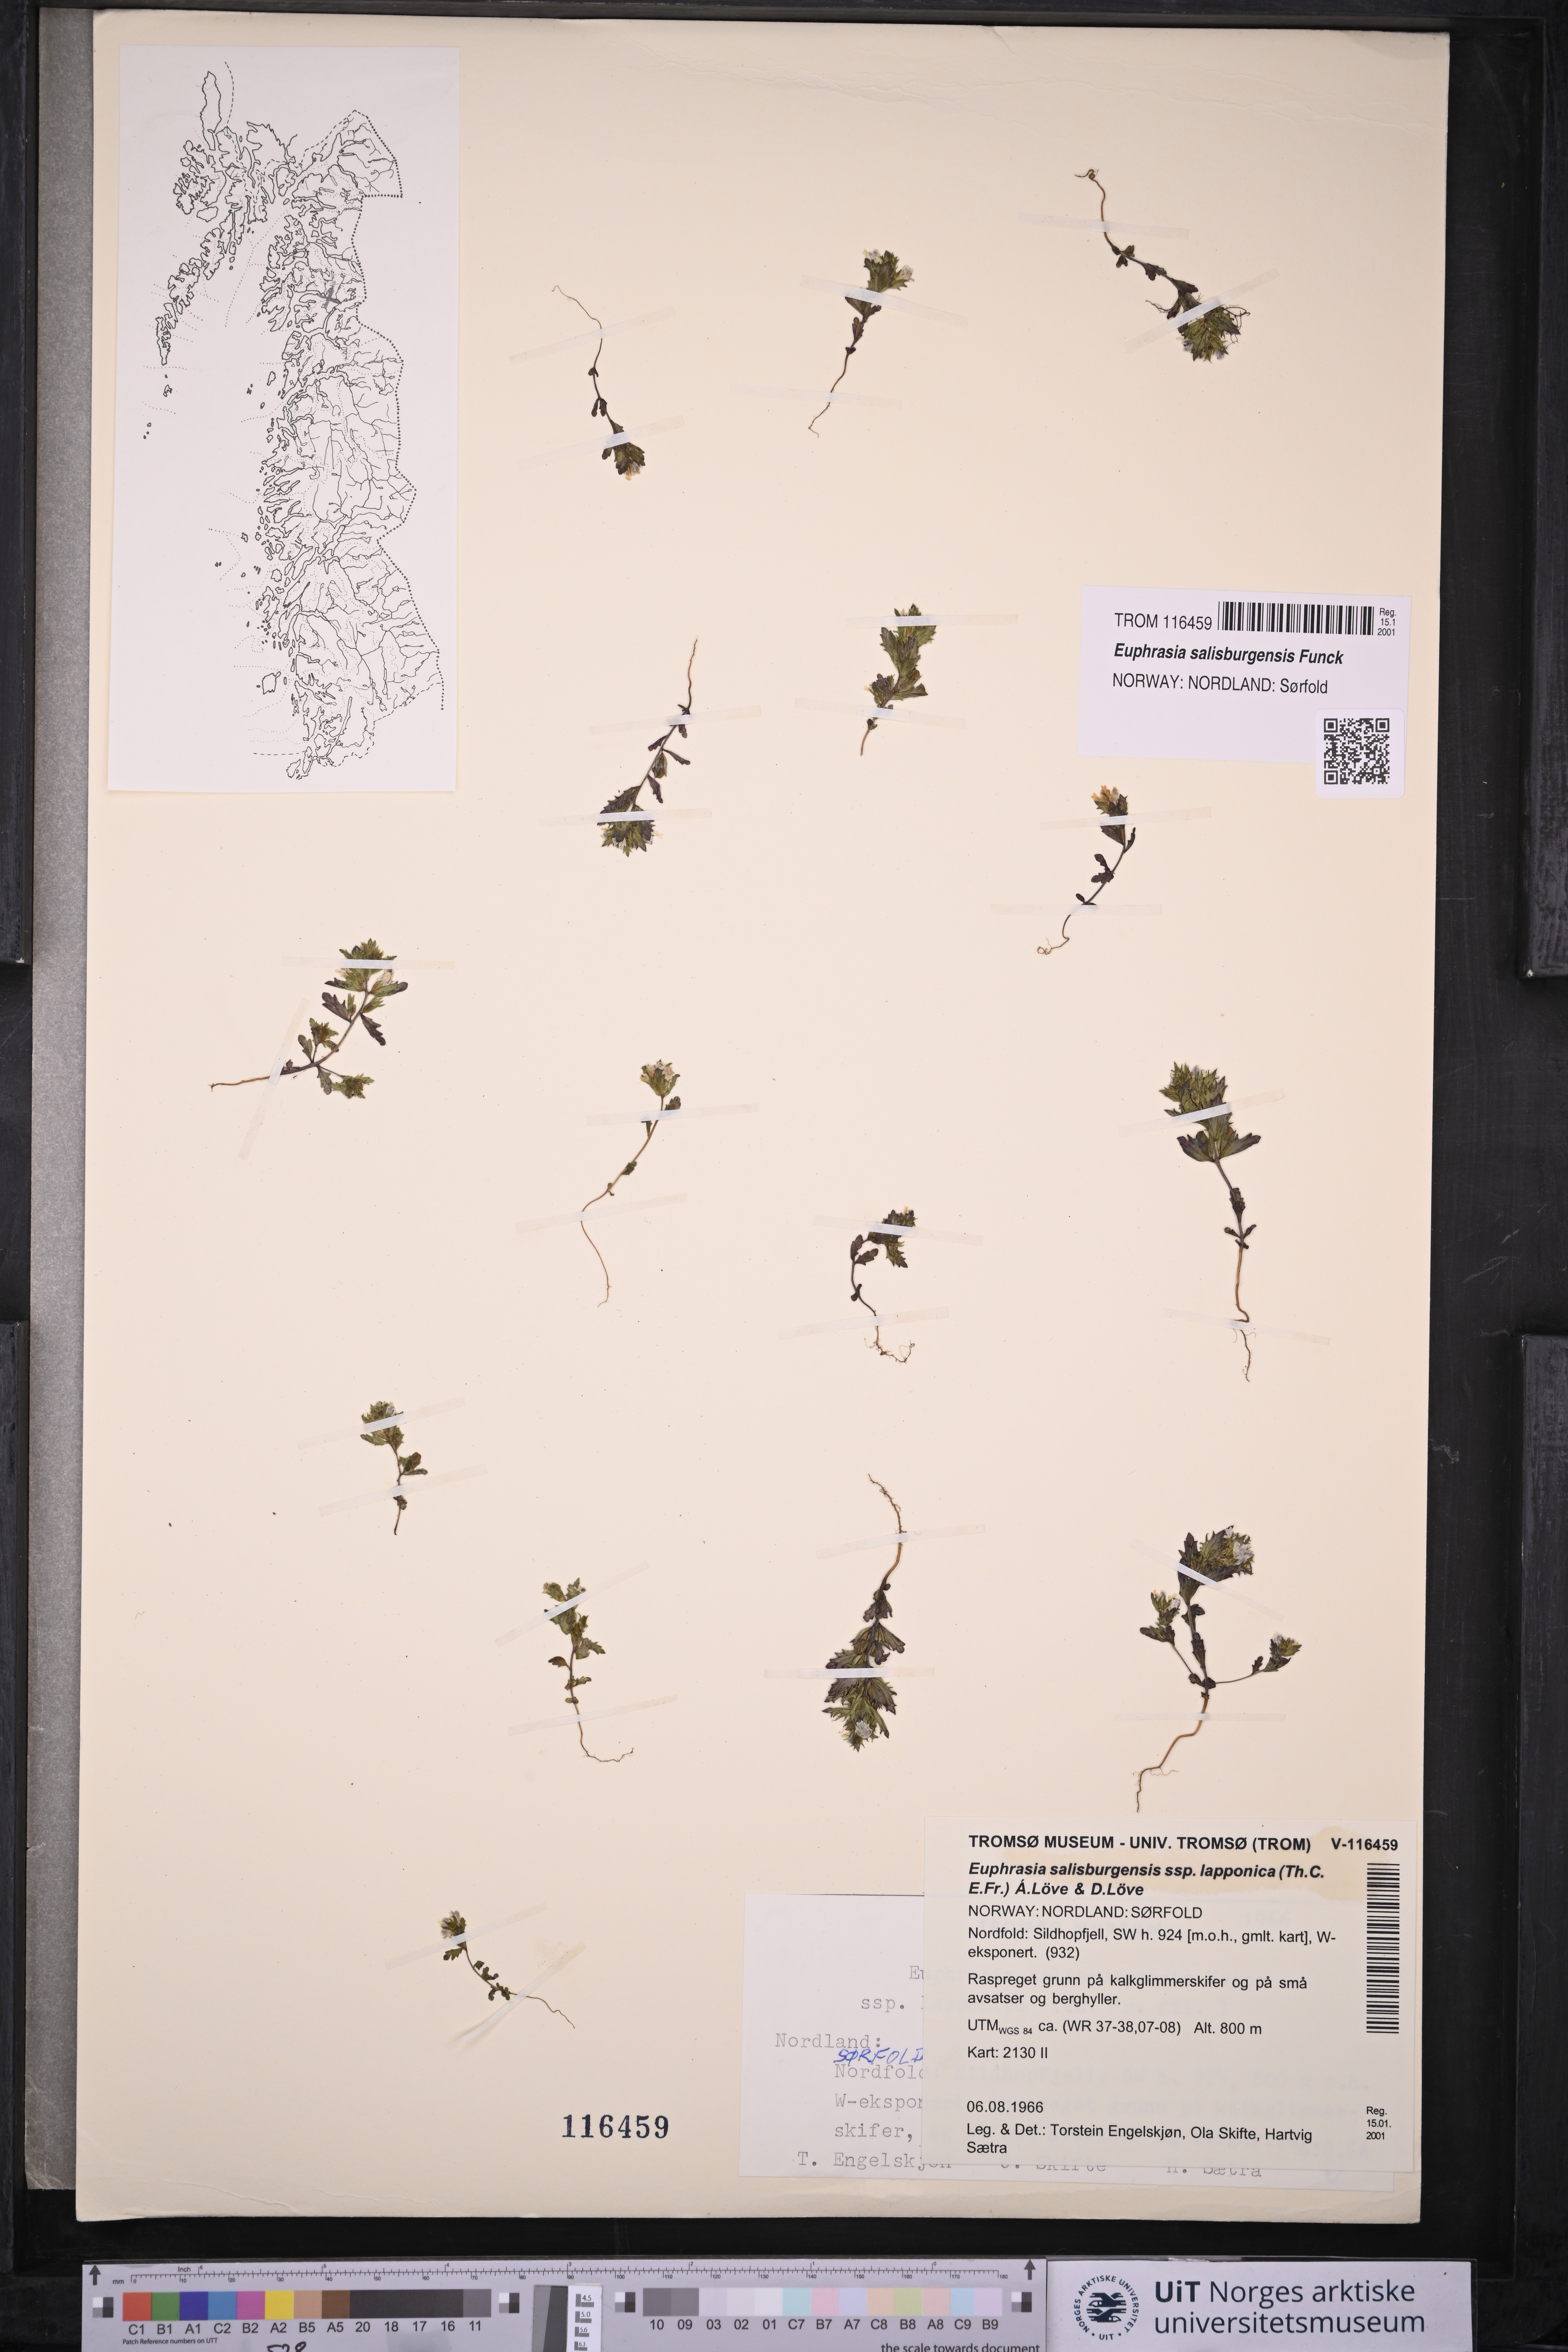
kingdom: Plantae
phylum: Tracheophyta
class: Magnoliopsida
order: Lamiales
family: Orobanchaceae
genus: Euphrasia
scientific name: Euphrasia salisburgensis
